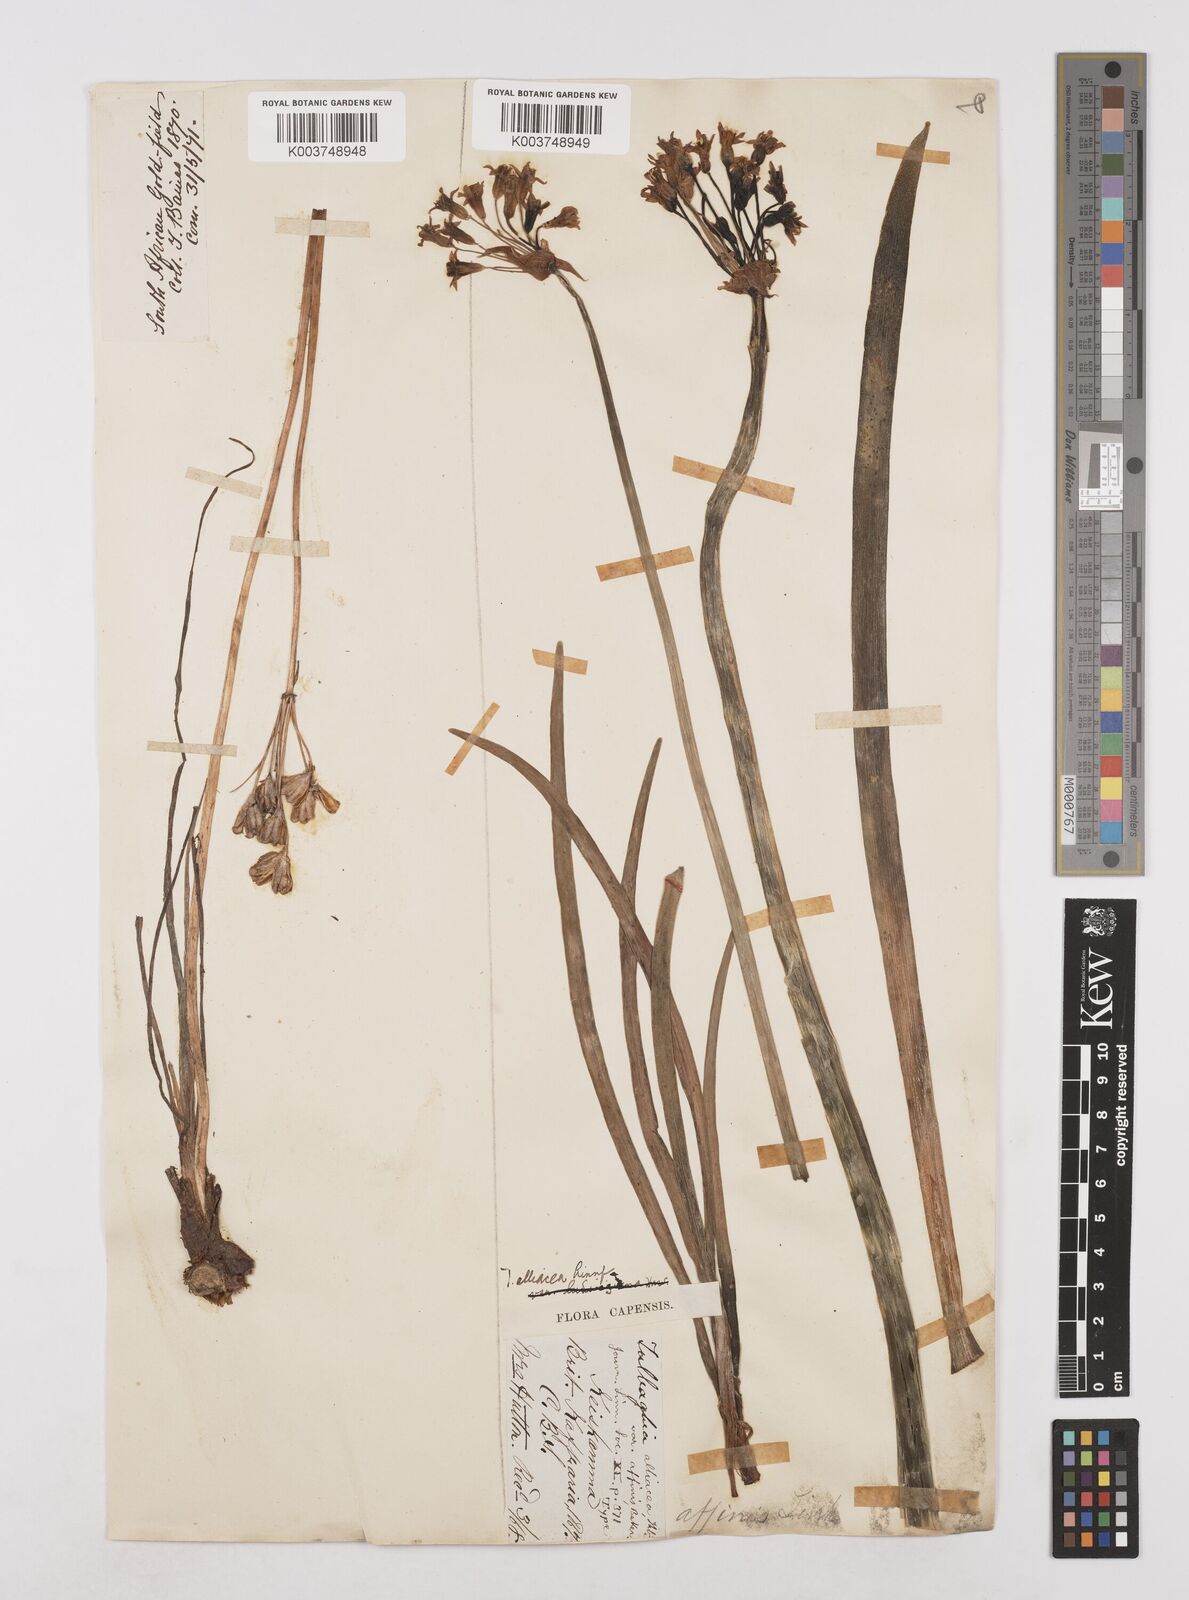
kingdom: Plantae
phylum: Tracheophyta
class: Liliopsida
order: Asparagales
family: Amaryllidaceae
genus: Tulbaghia
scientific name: Tulbaghia alliacea
